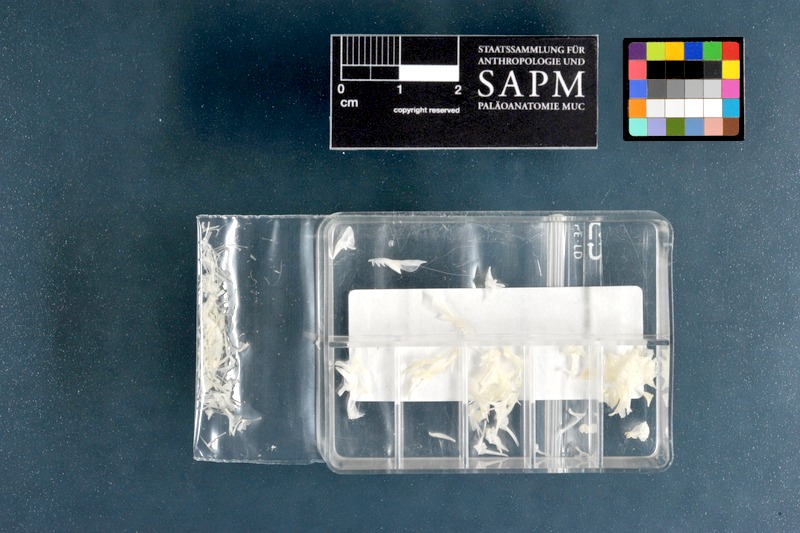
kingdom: Animalia
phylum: Chordata
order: Perciformes
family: Callionymidae
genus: Synchiropus
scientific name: Synchiropus picturatus
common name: Green spot mandarin
